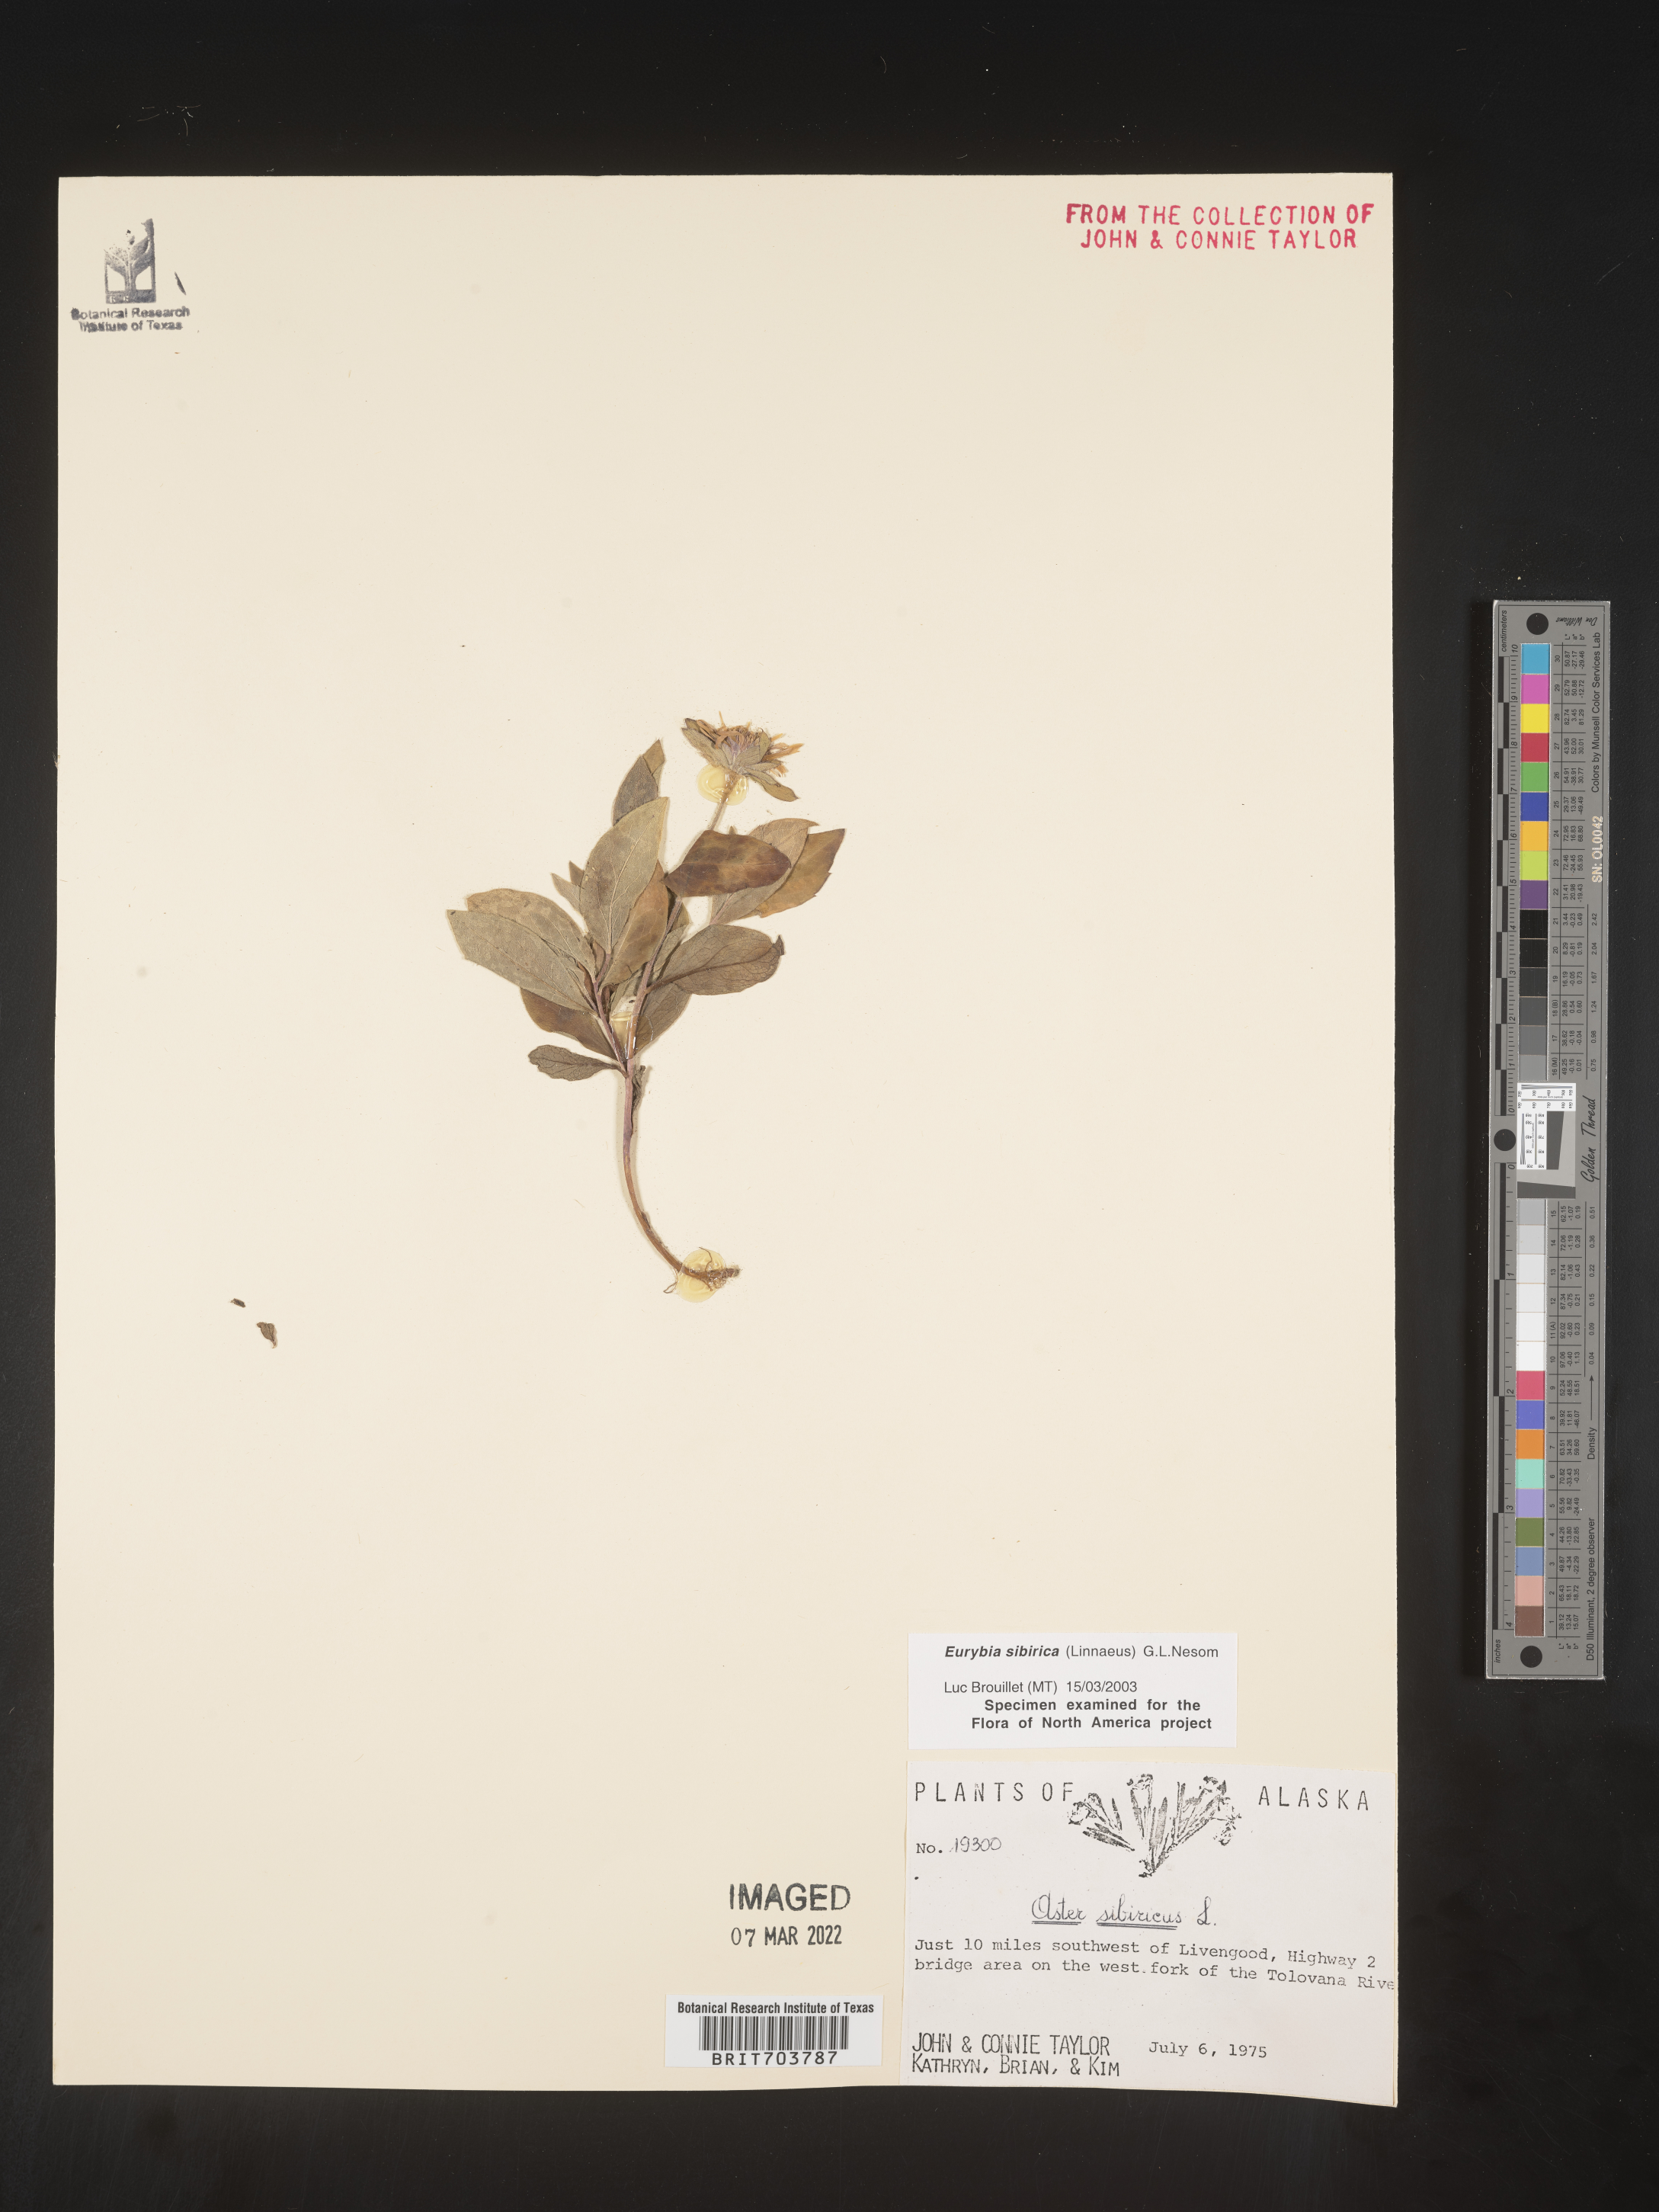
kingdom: Plantae
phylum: Tracheophyta
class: Magnoliopsida
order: Asterales
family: Asteraceae
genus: Eurybia
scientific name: Eurybia sibirica
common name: Arctic aster
